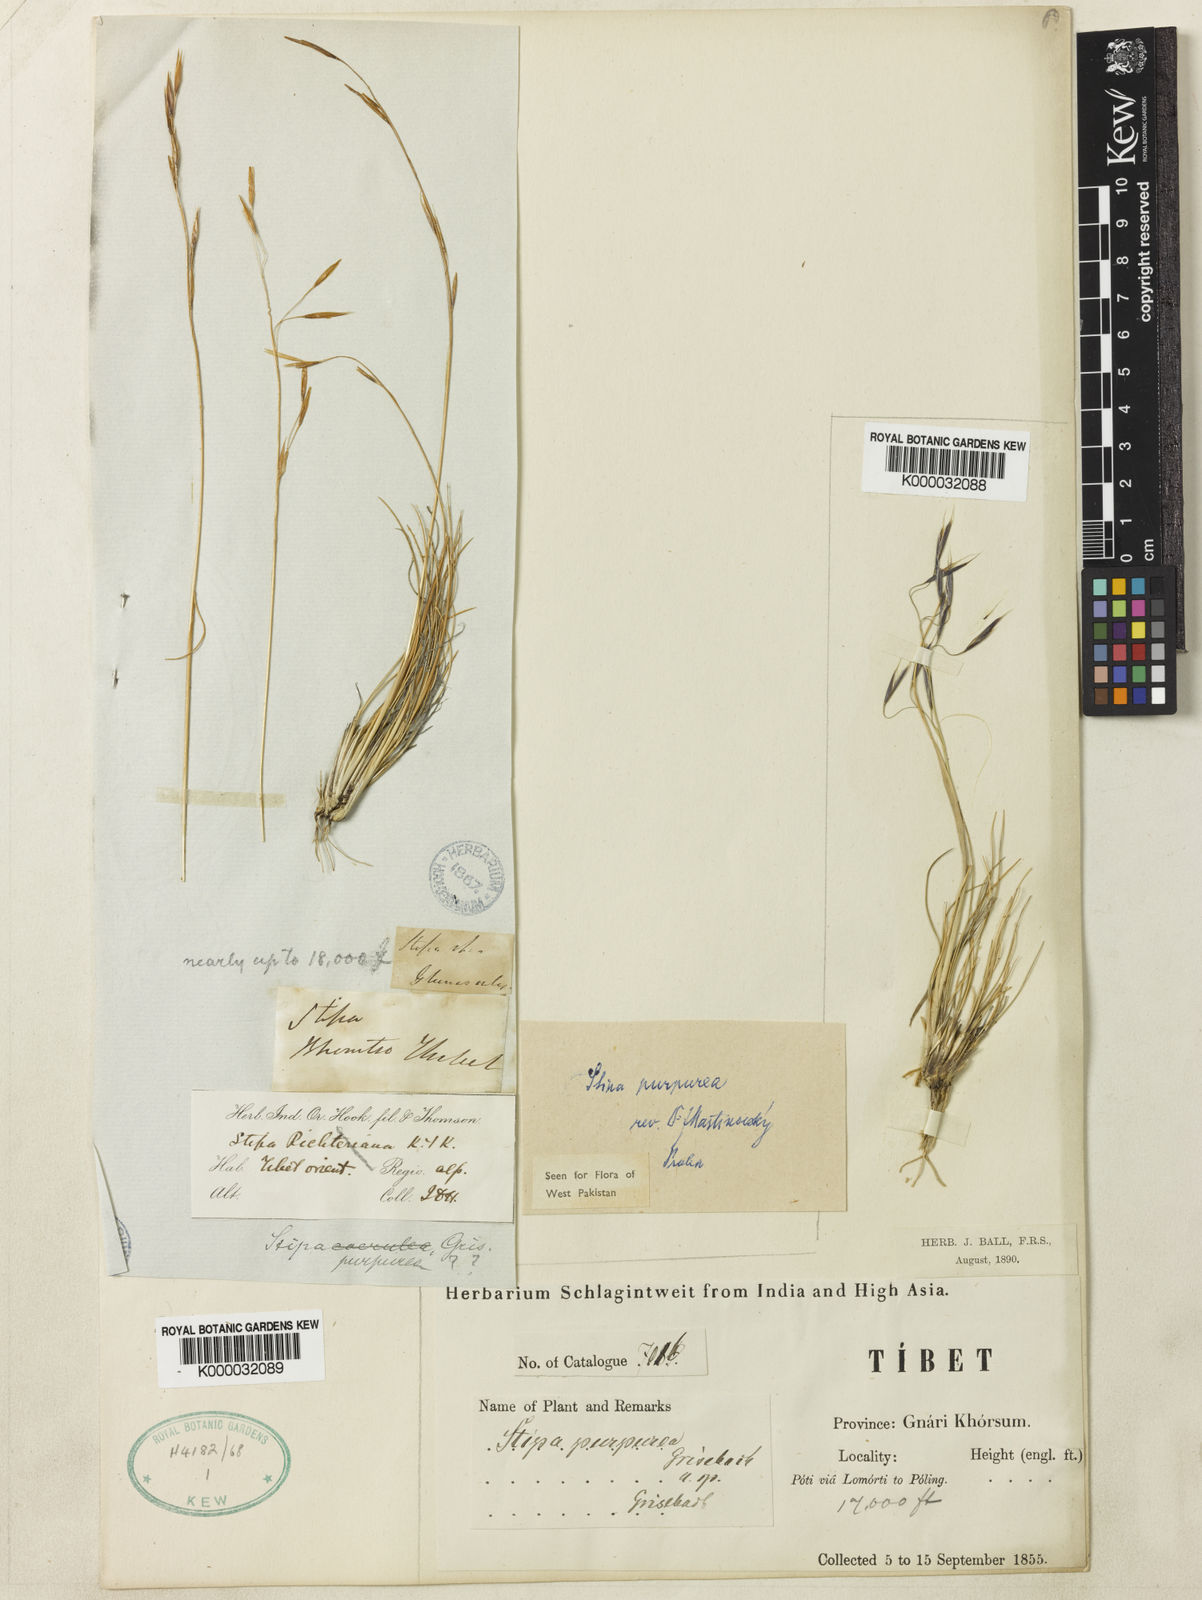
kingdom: Plantae
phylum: Tracheophyta
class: Liliopsida
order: Poales
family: Poaceae
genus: Stipa
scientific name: Stipa purpurea
